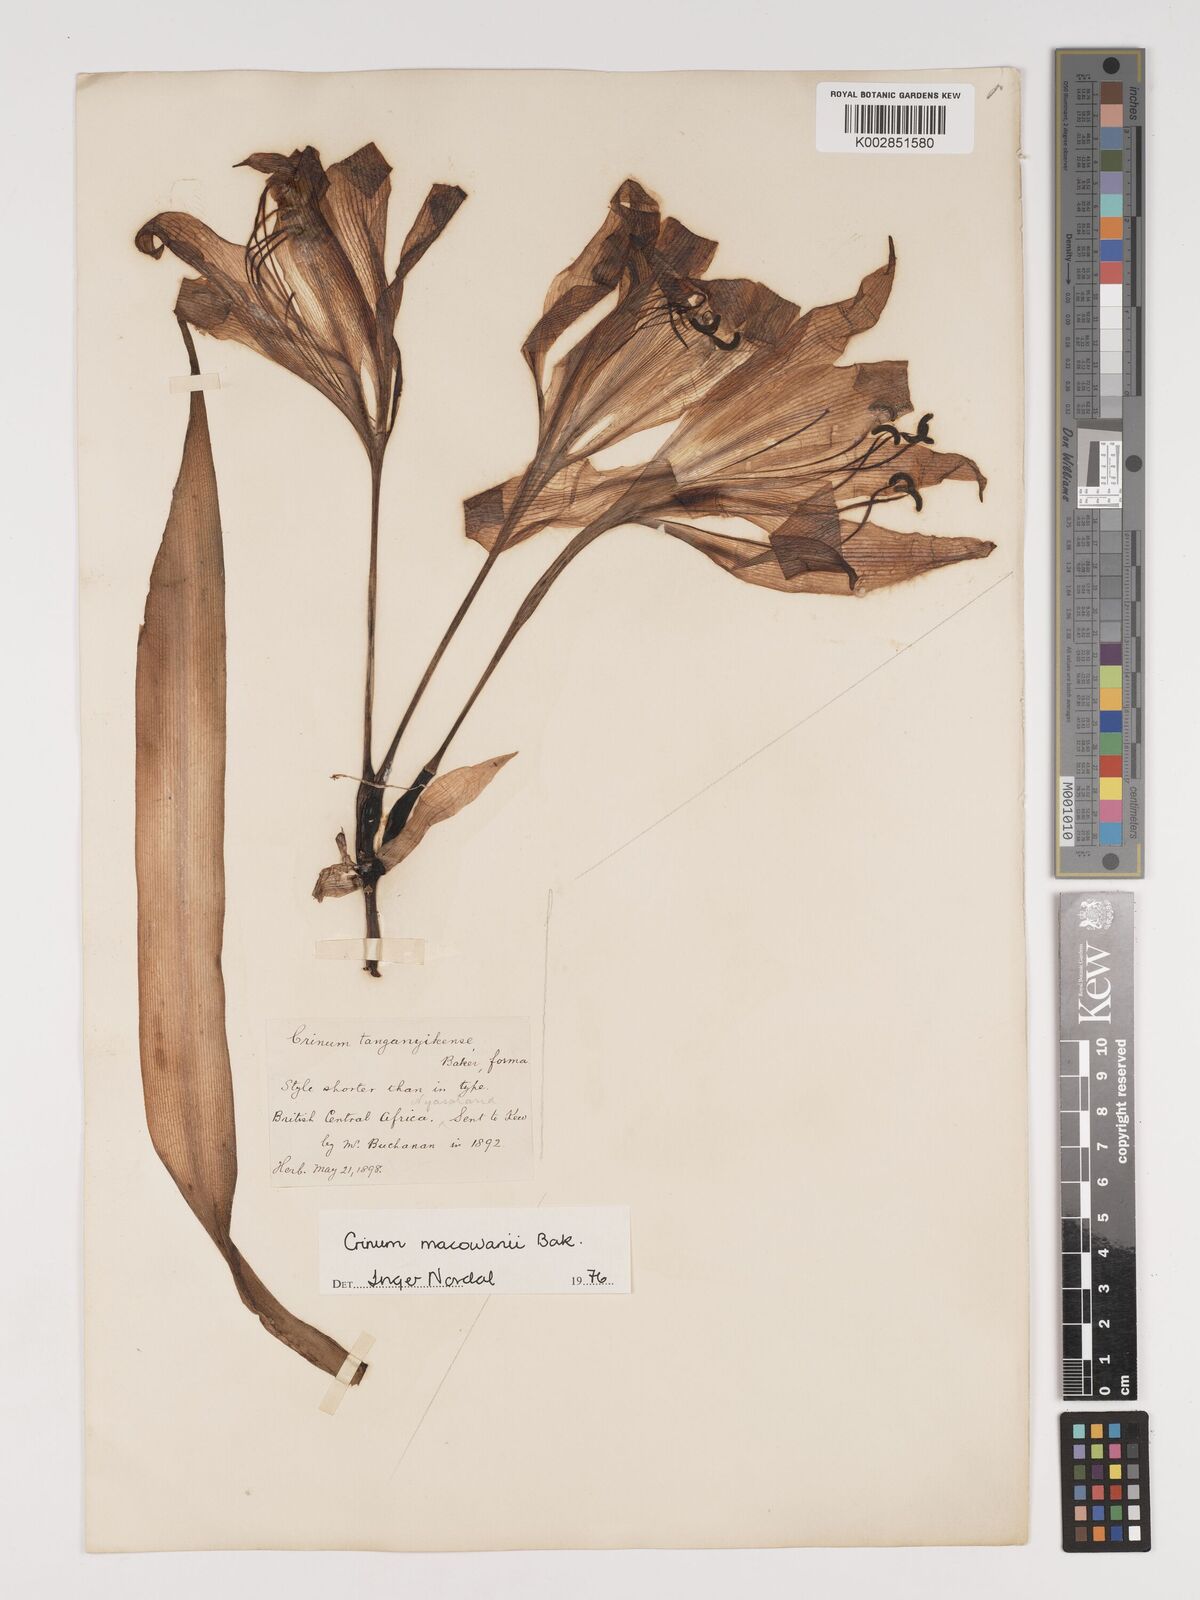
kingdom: Plantae
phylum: Tracheophyta
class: Liliopsida
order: Asparagales
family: Amaryllidaceae
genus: Crinum
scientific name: Crinum macowanii
